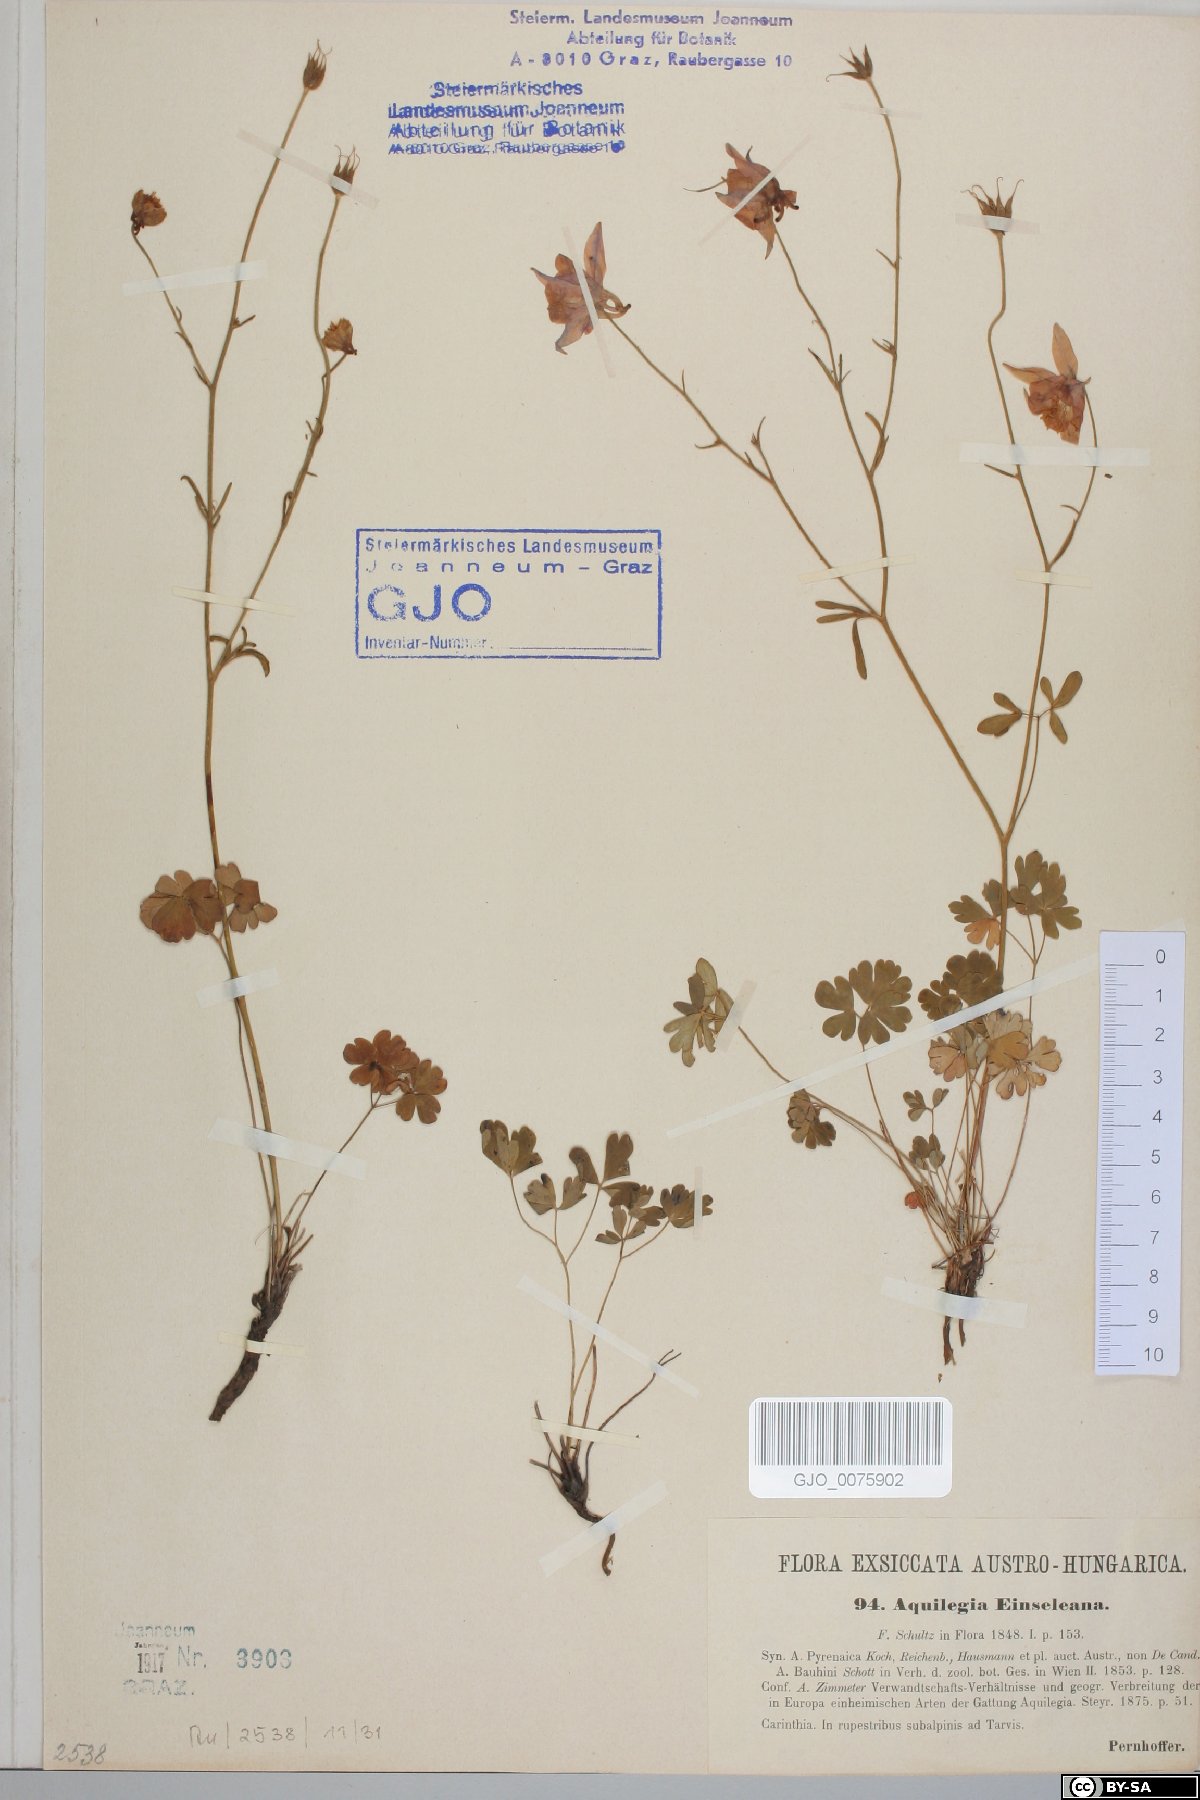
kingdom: Plantae
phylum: Tracheophyta
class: Magnoliopsida
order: Ranunculales
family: Ranunculaceae
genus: Aquilegia
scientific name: Aquilegia einseleana
